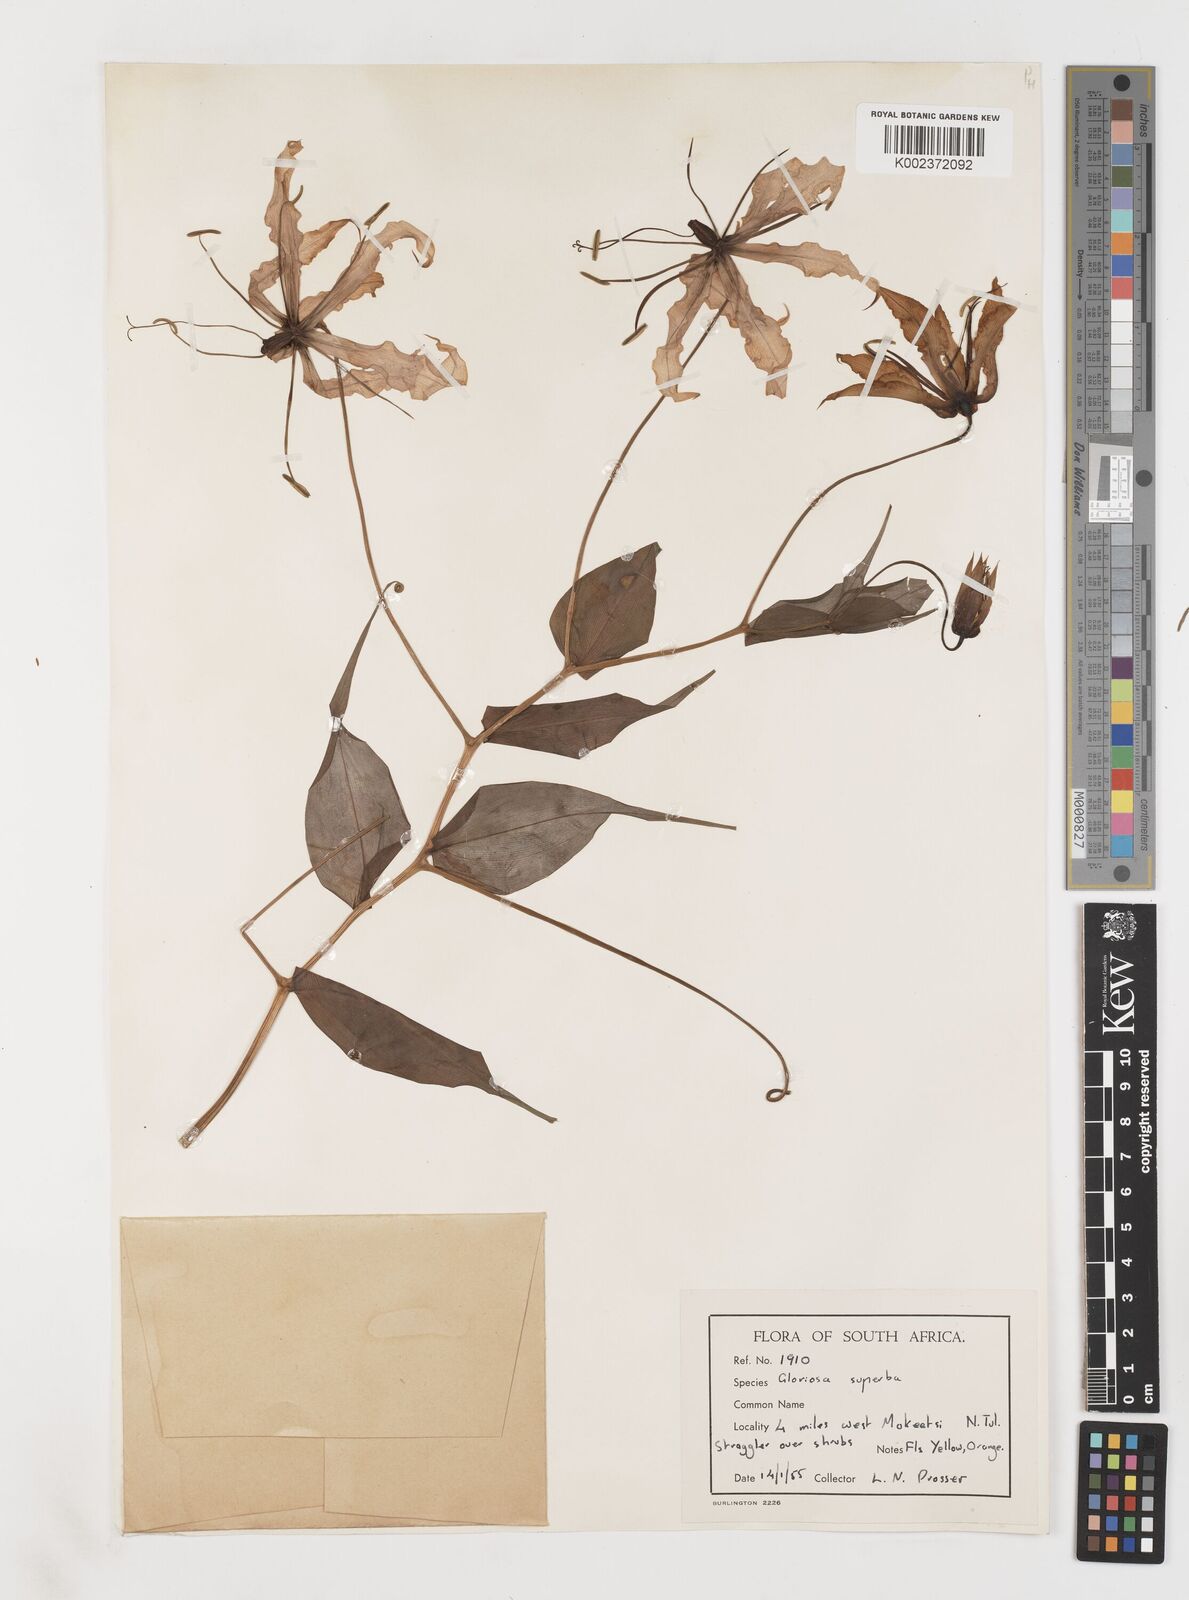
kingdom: Plantae
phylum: Tracheophyta
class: Liliopsida
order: Liliales
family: Colchicaceae
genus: Gloriosa
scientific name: Gloriosa superba
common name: Flame lily
